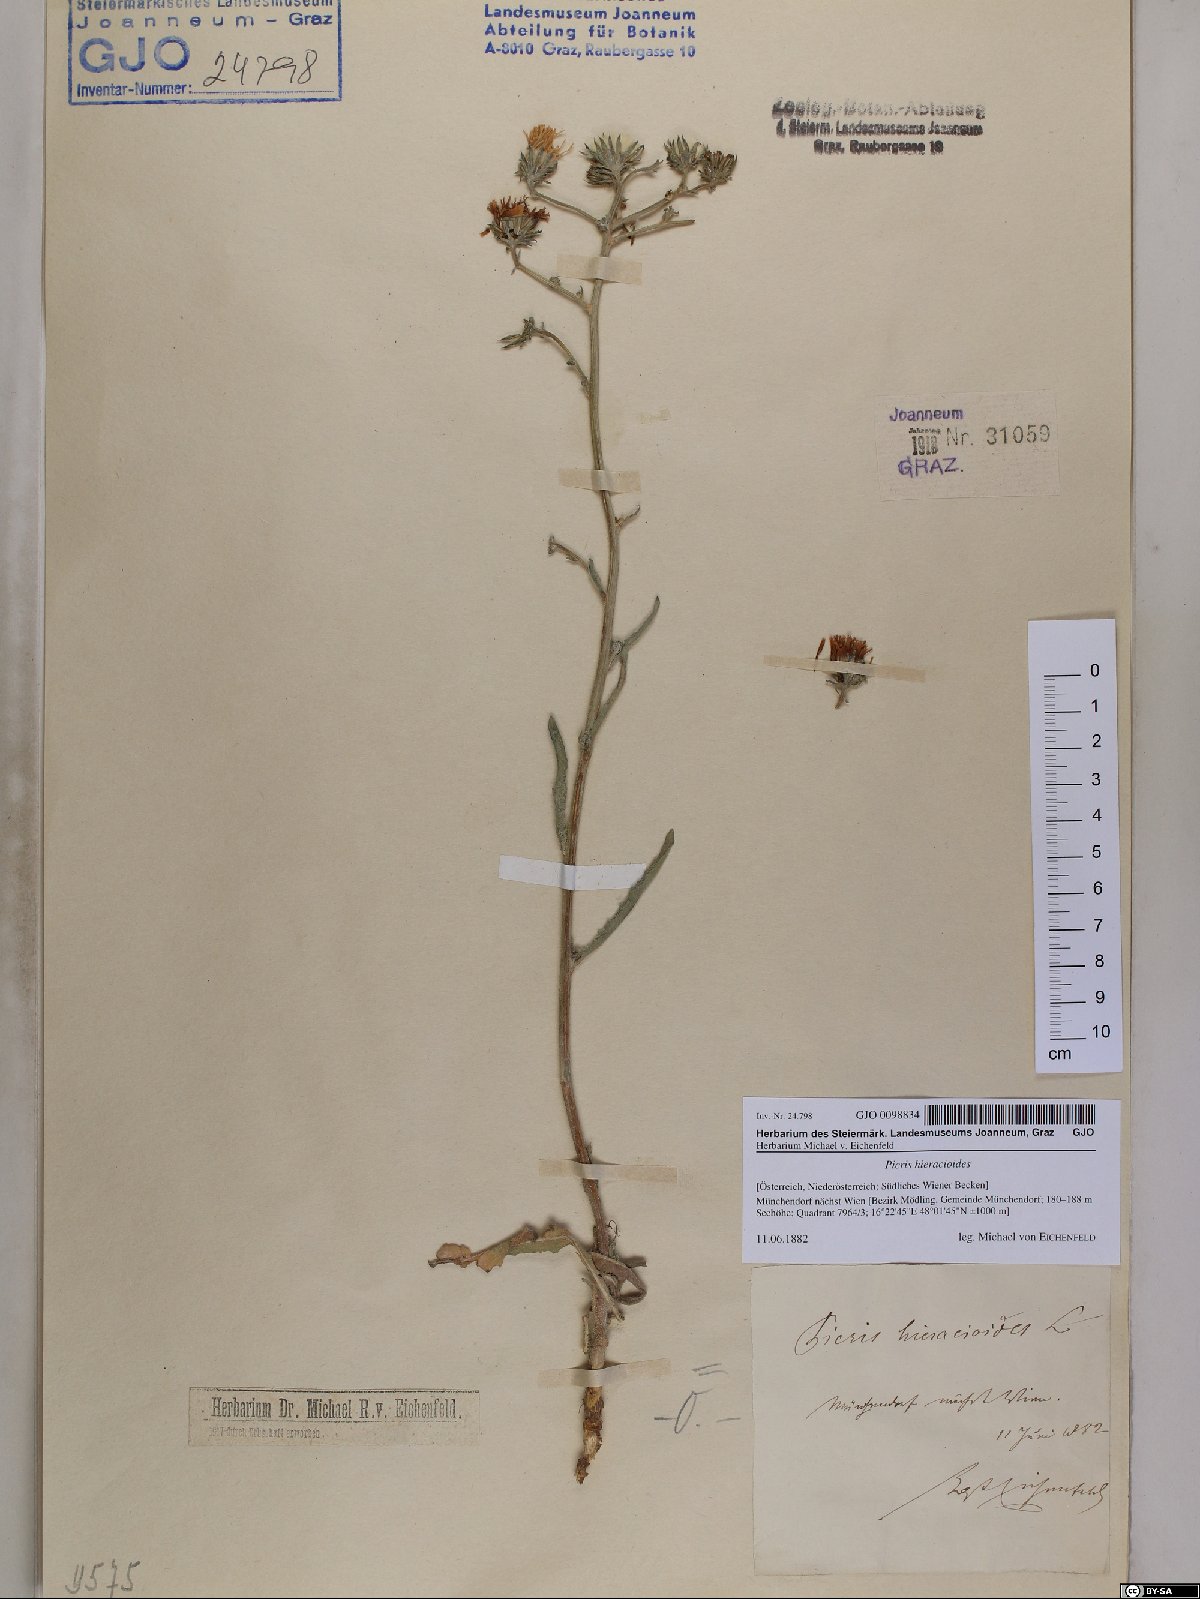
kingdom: Plantae
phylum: Tracheophyta
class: Magnoliopsida
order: Asterales
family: Asteraceae
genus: Picris
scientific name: Picris hieracioides
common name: Hawkweed oxtongue
